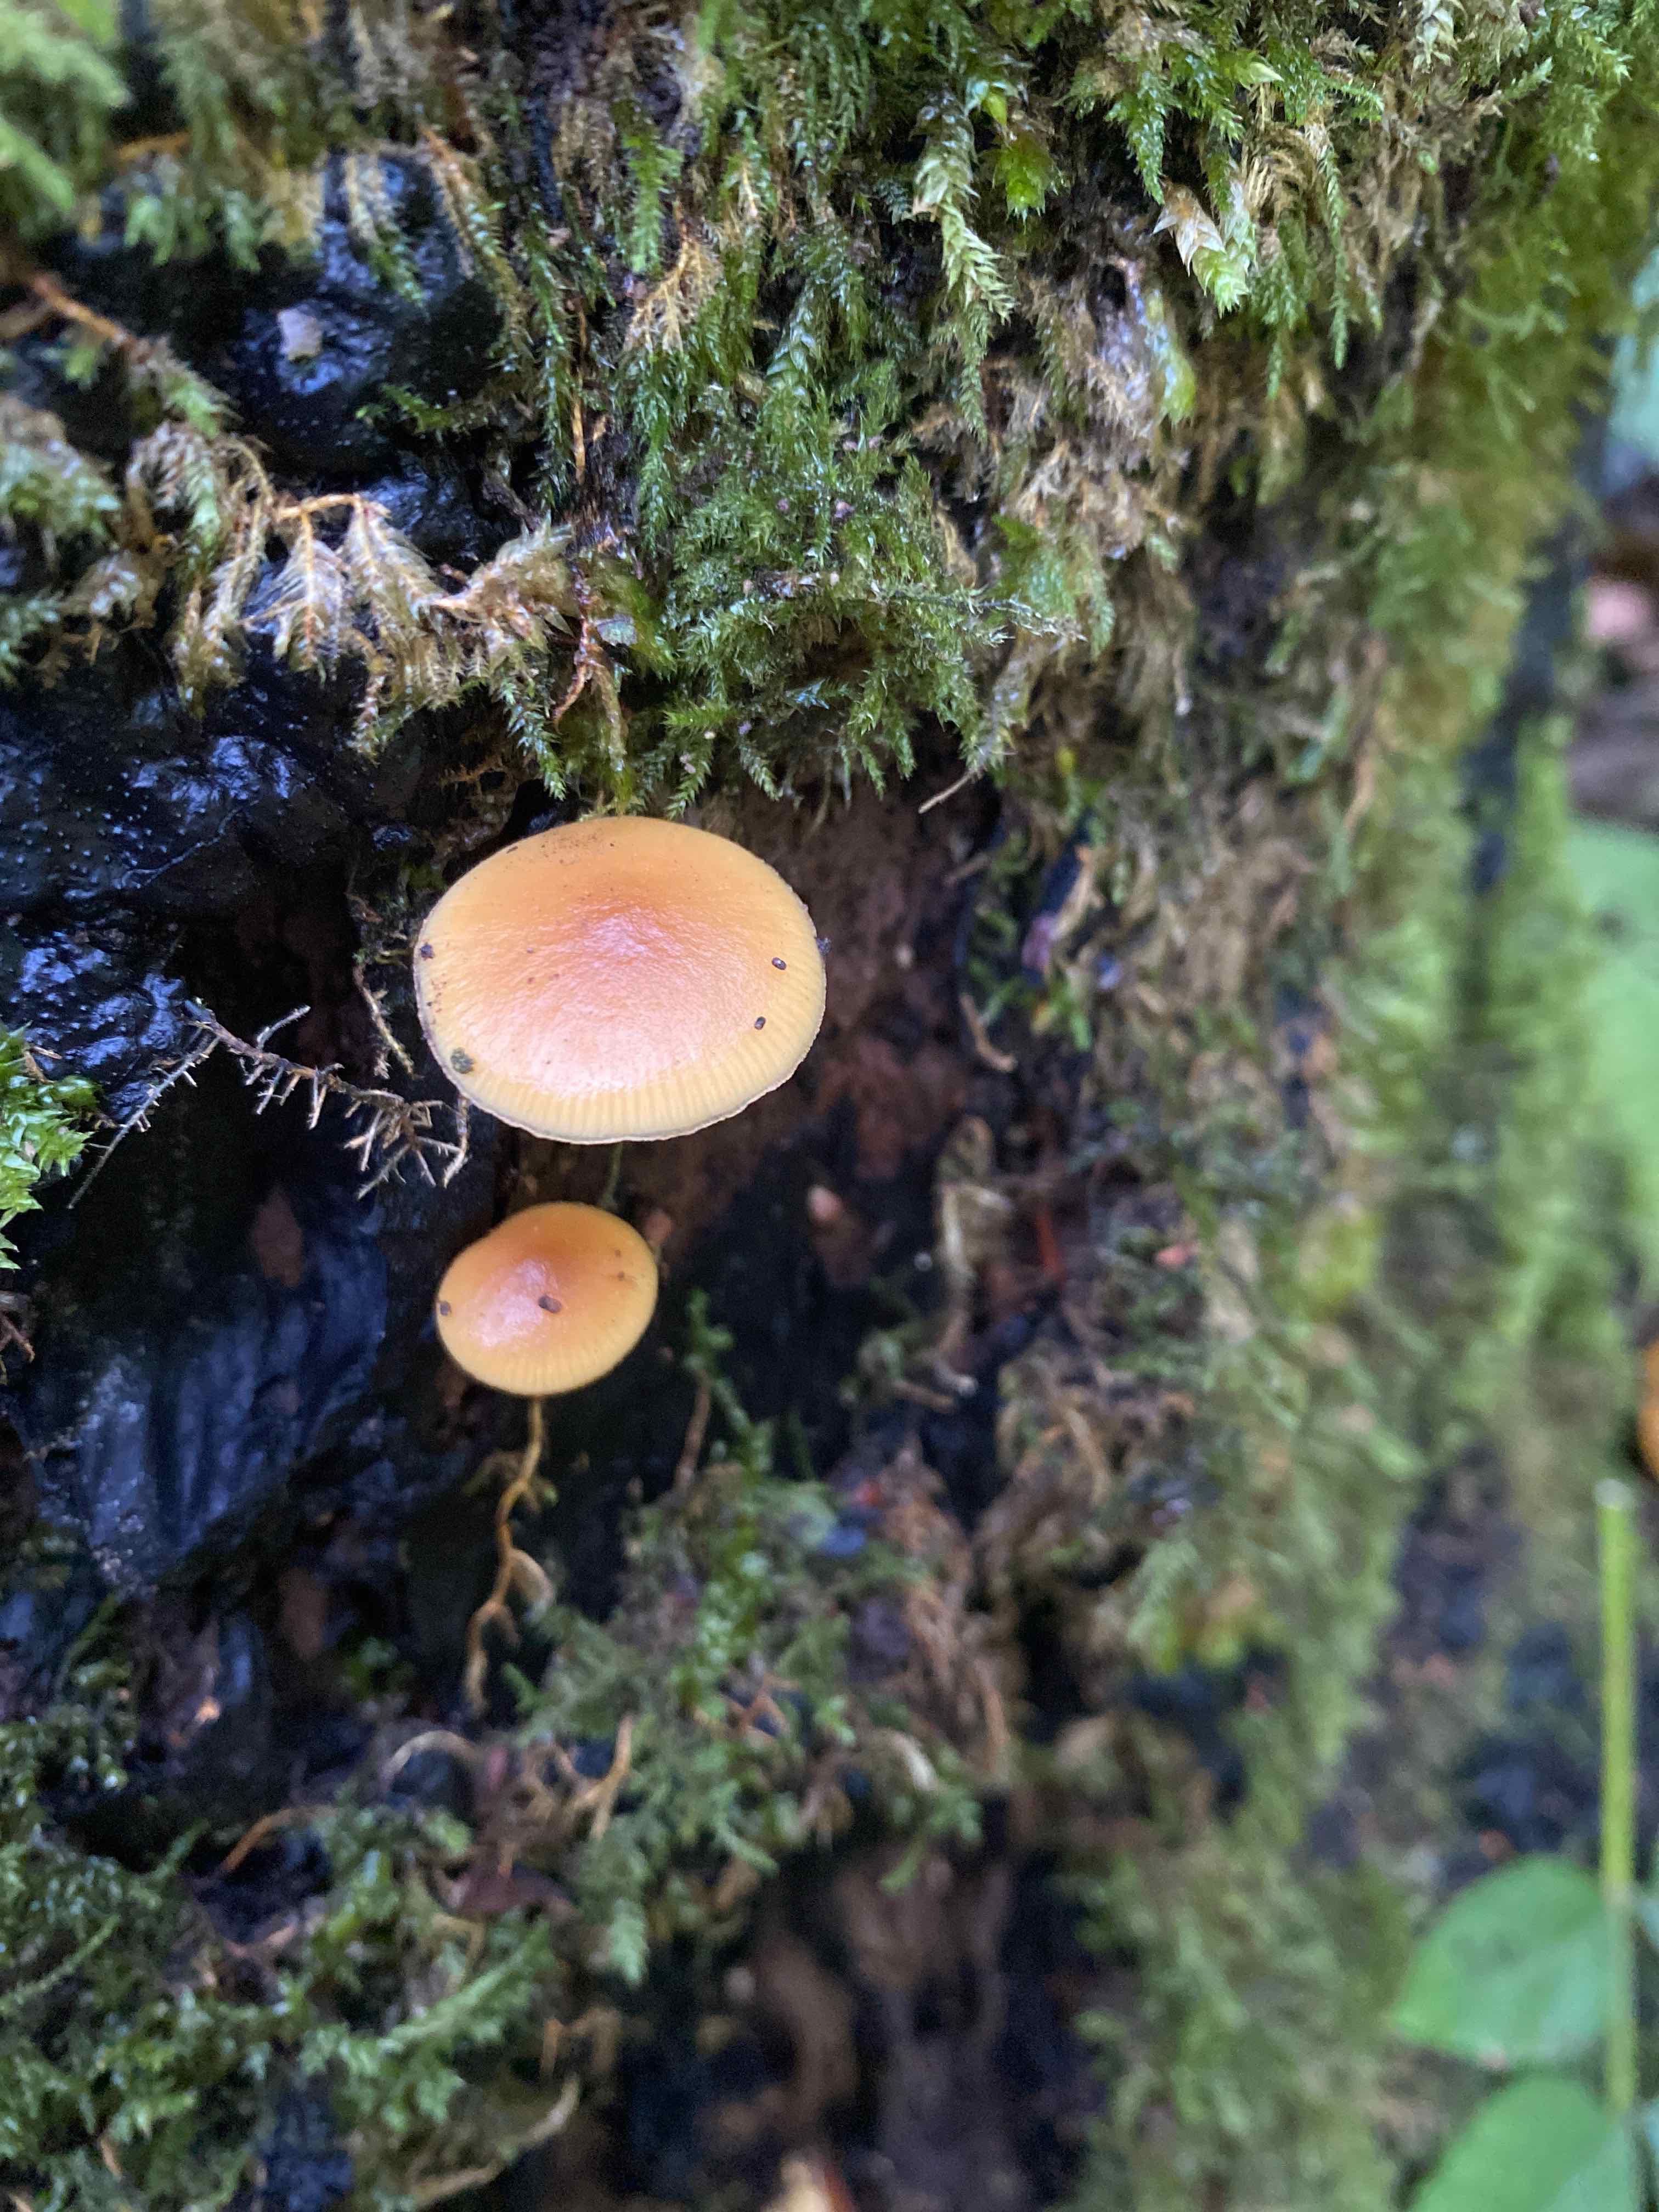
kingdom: Fungi
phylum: Basidiomycota
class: Agaricomycetes
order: Agaricales
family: Hymenogastraceae
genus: Galerina
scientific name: Galerina marginata
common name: randbæltet hjelmhat
